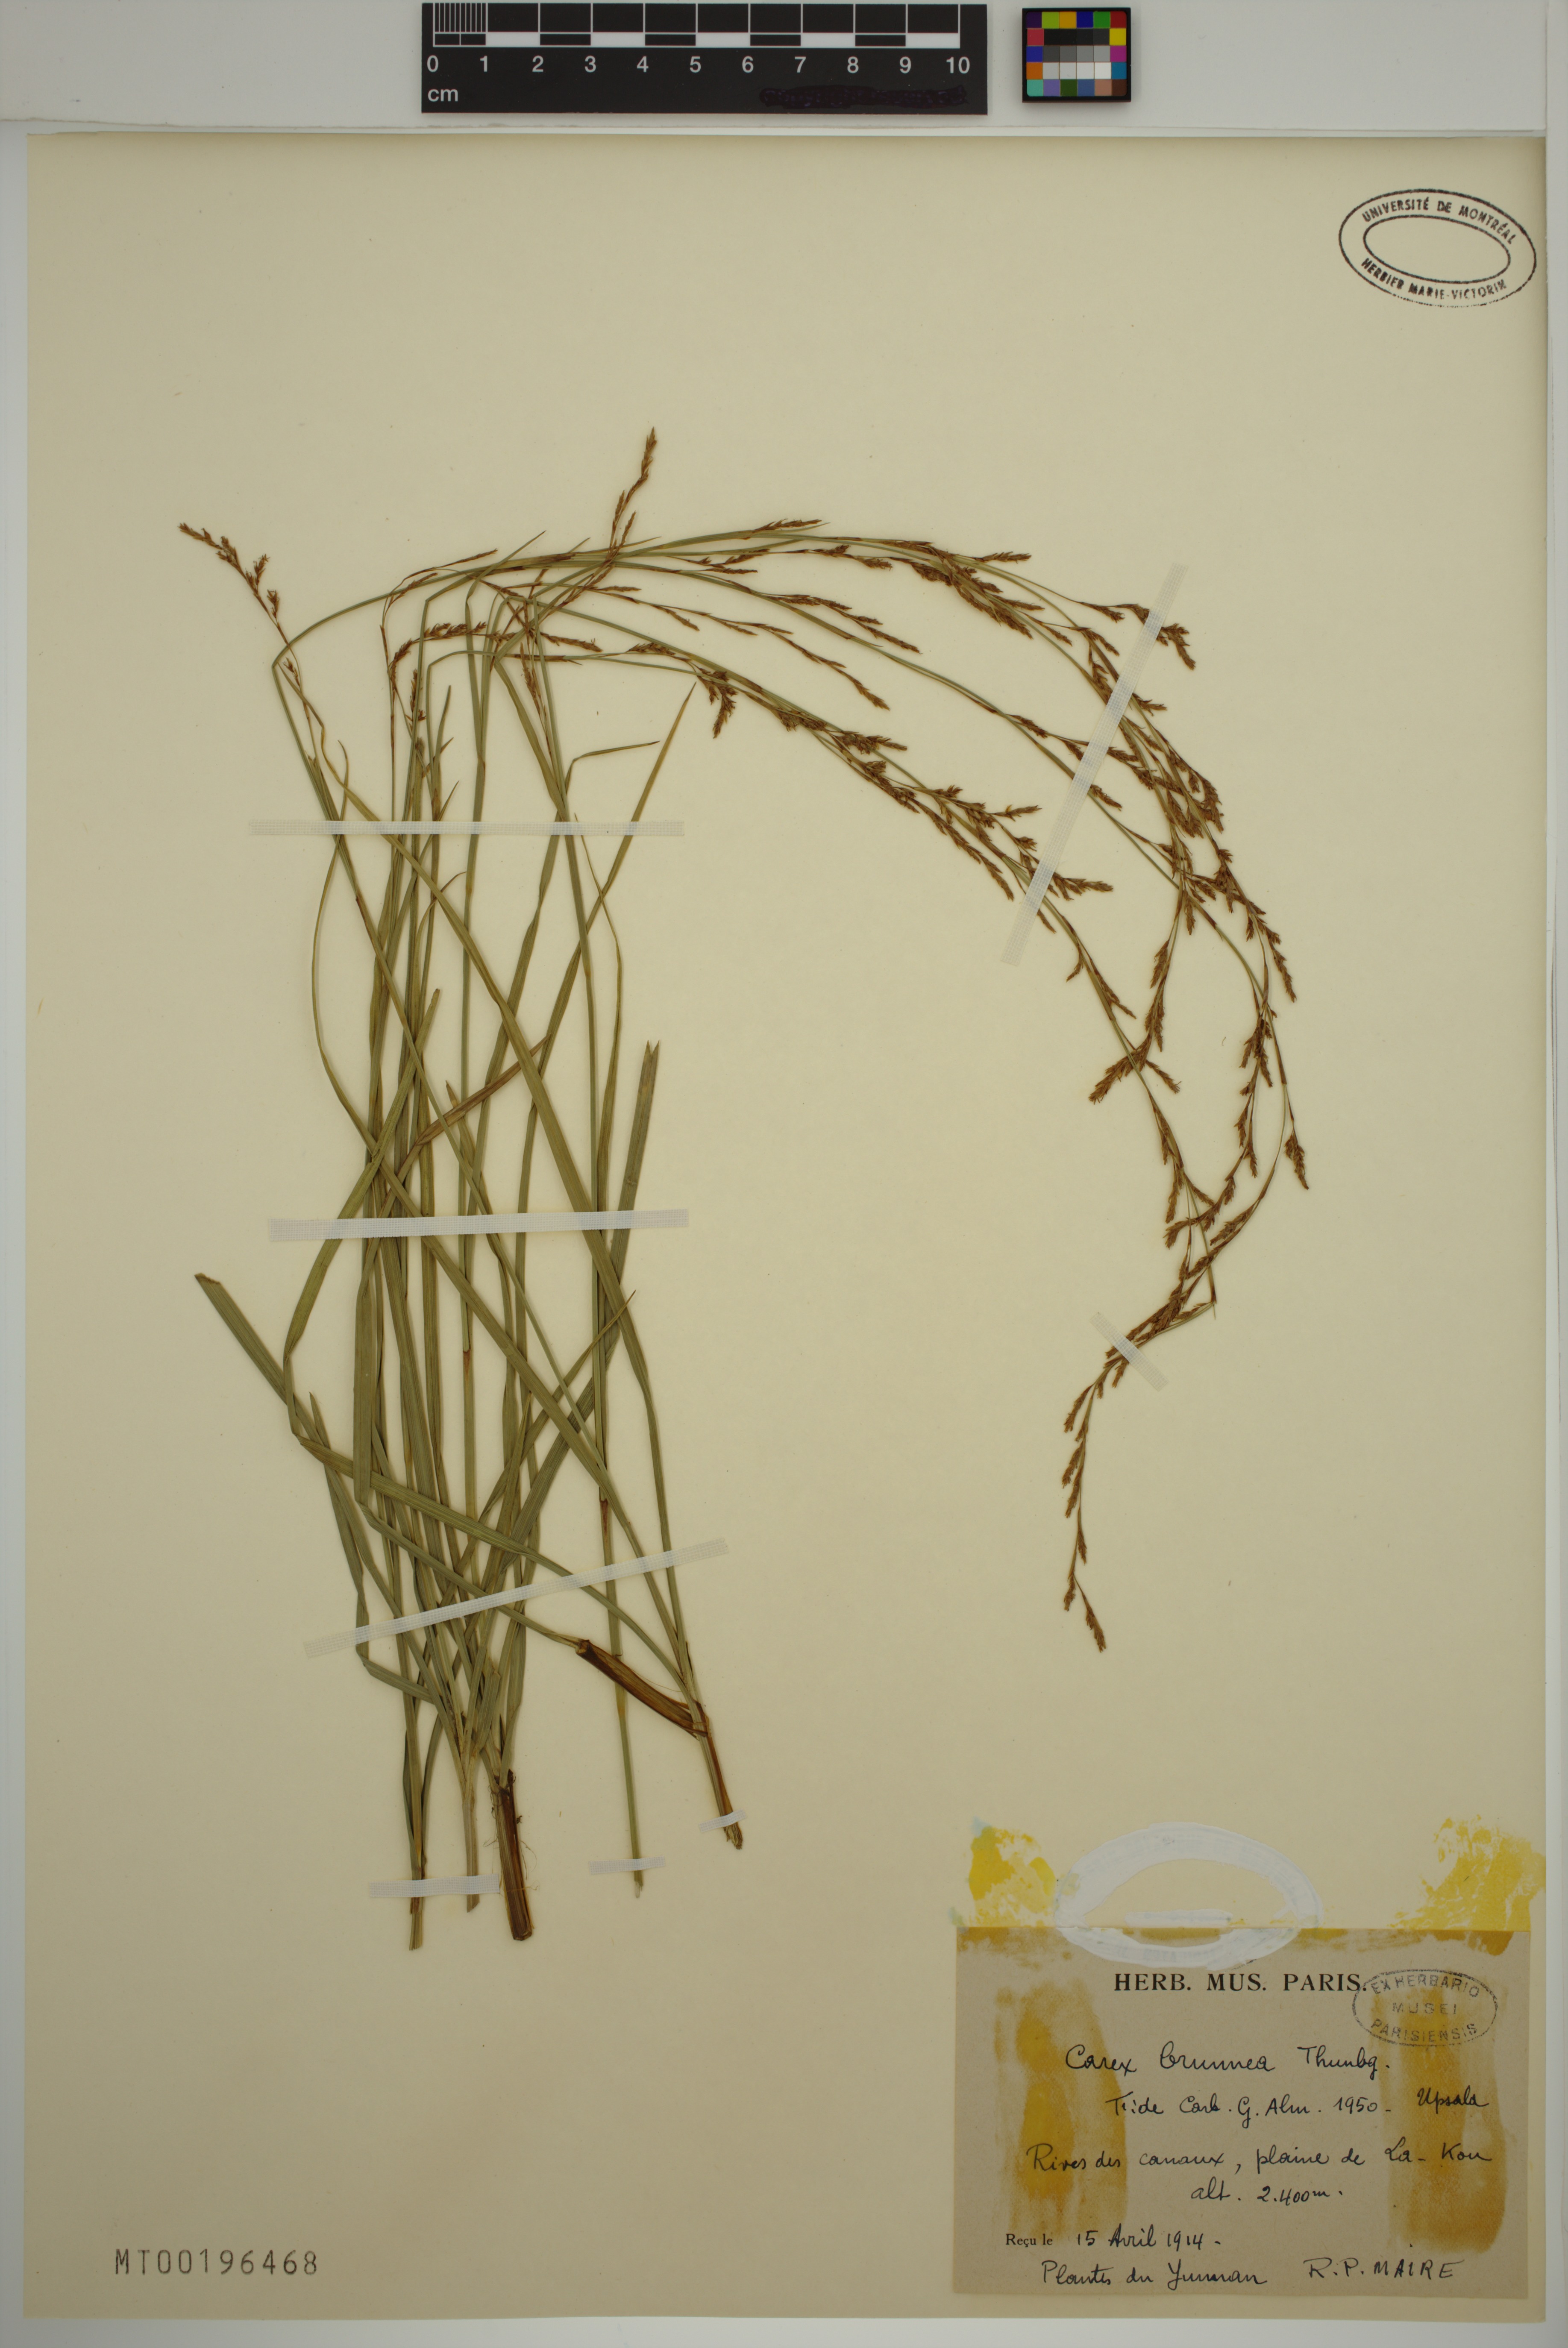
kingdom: Plantae
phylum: Tracheophyta
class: Liliopsida
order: Poales
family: Cyperaceae
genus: Carex
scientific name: Carex brunnea
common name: Greater brown sedge
